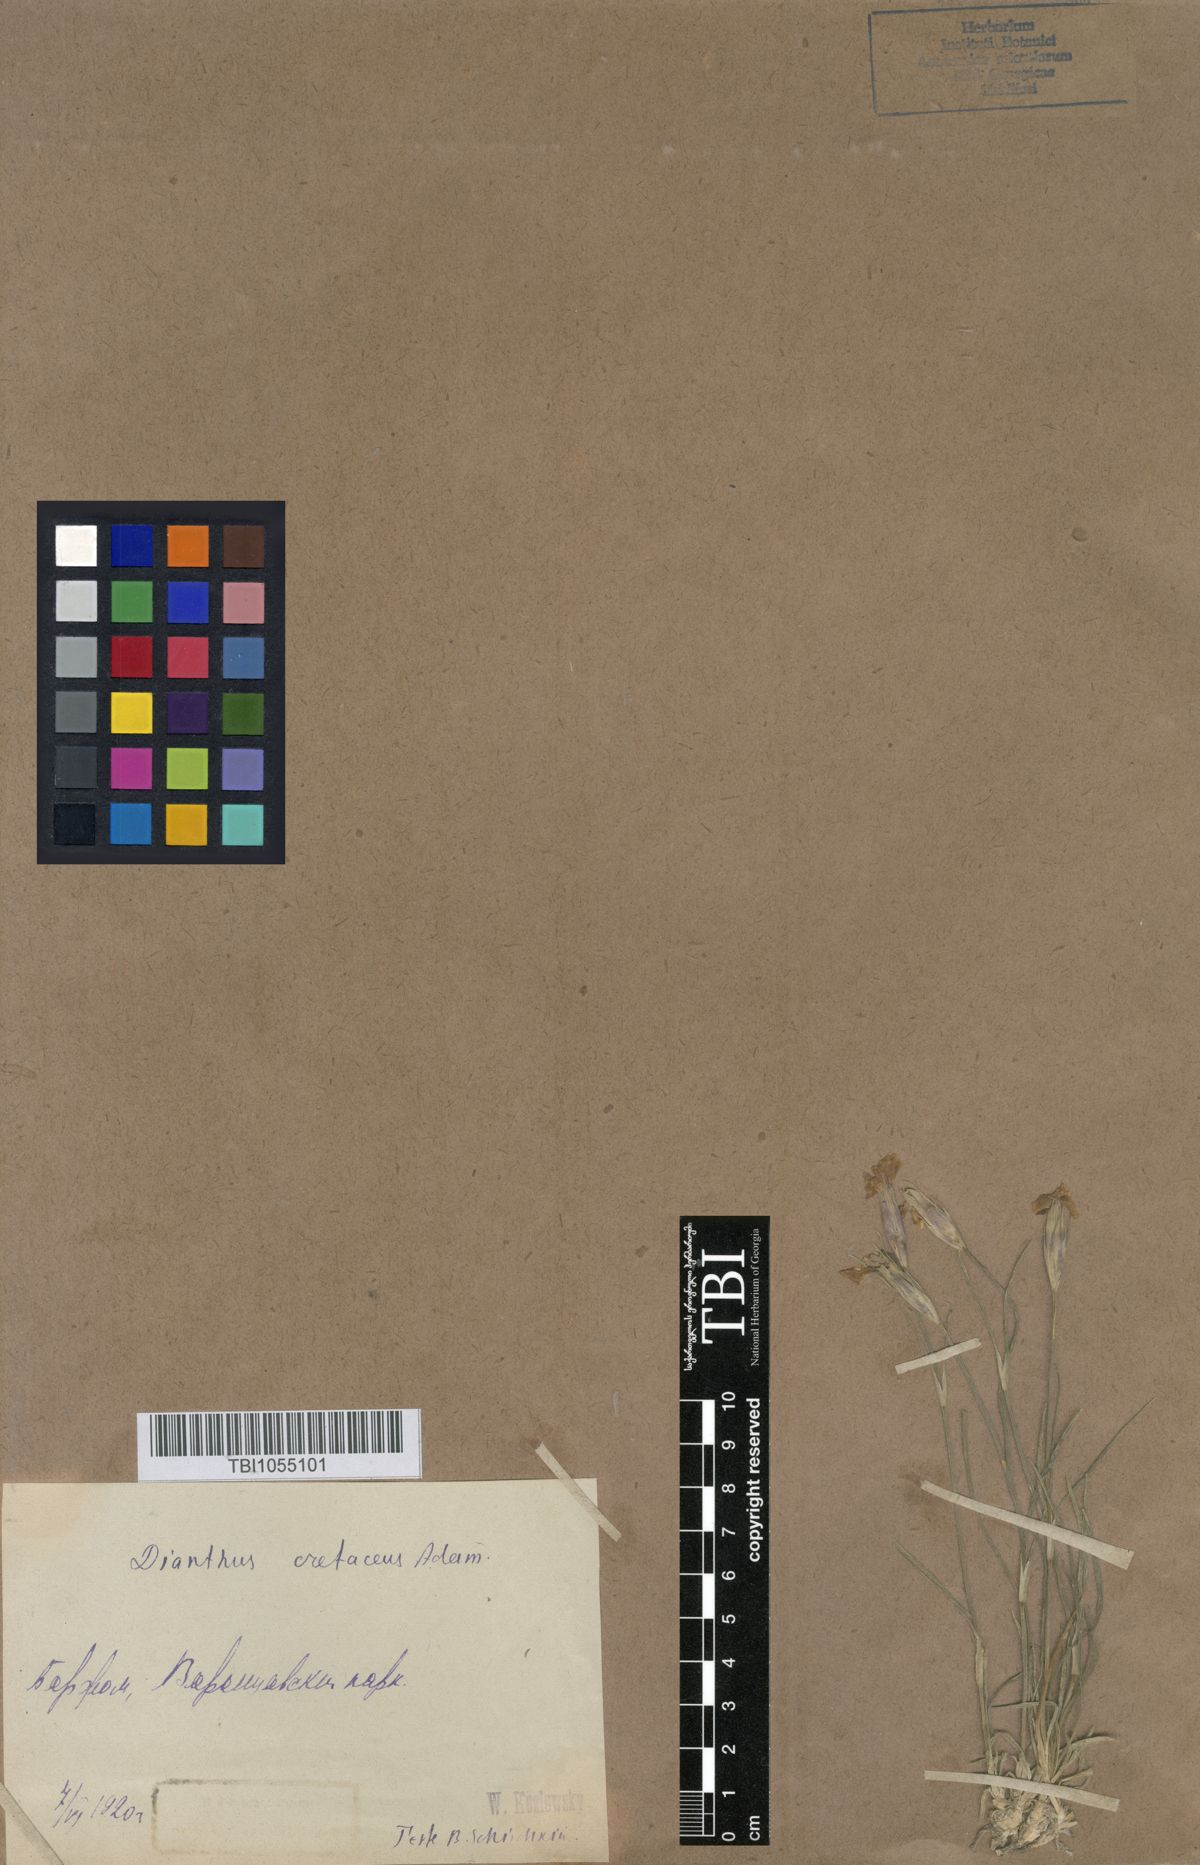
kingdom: Plantae
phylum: Tracheophyta
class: Magnoliopsida
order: Caryophyllales
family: Caryophyllaceae
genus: Dianthus
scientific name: Dianthus cretaceus
